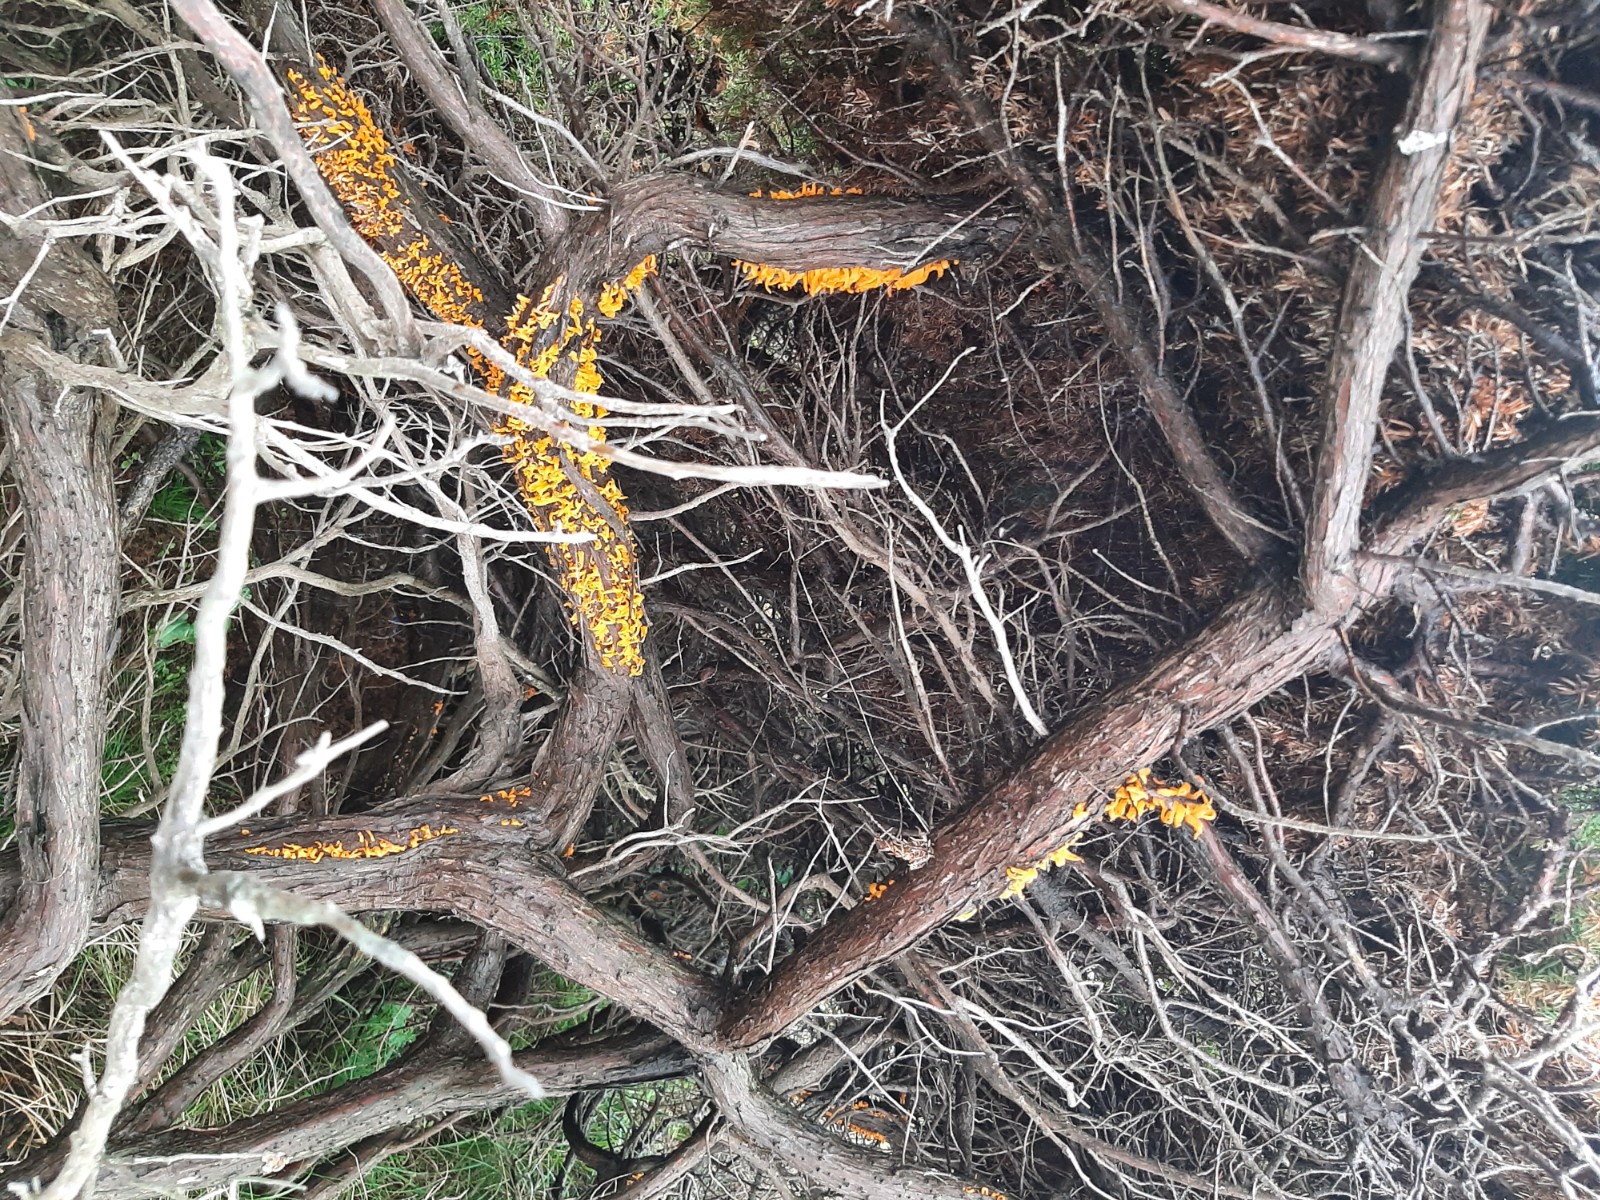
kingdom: Fungi
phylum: Basidiomycota
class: Pucciniomycetes
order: Pucciniales
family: Gymnosporangiaceae
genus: Gymnosporangium
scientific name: Gymnosporangium clavariiforme
